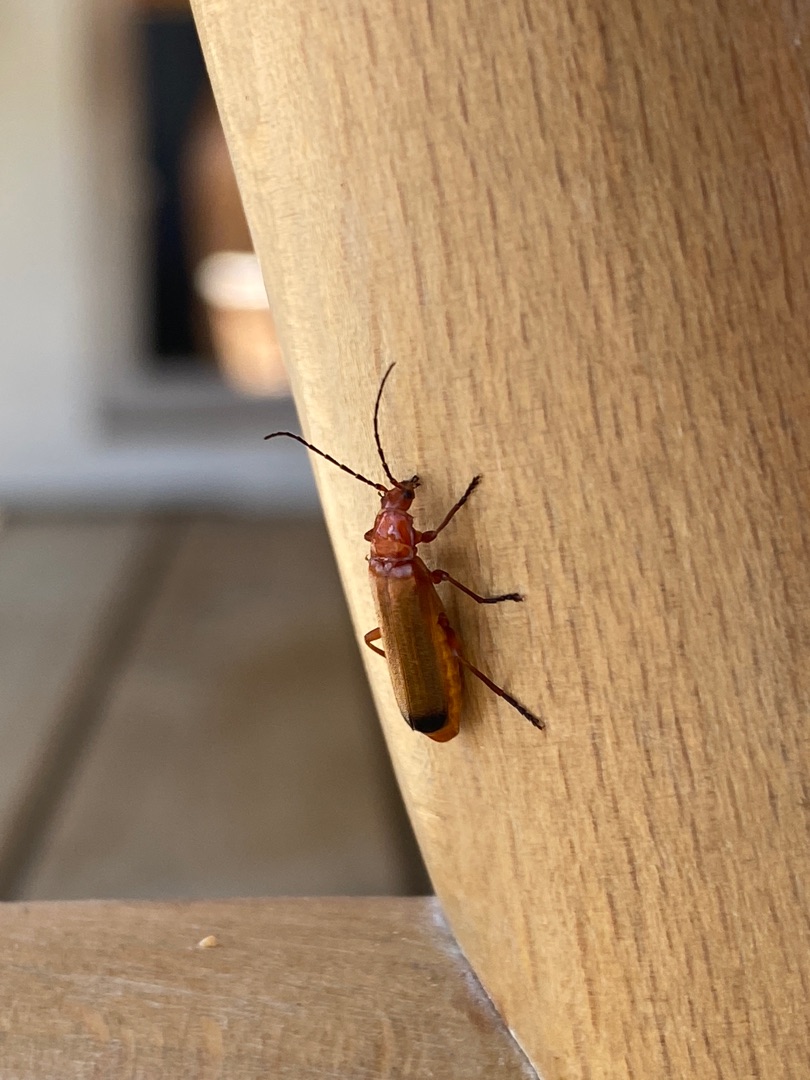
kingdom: Animalia
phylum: Arthropoda
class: Insecta
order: Coleoptera
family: Cantharidae
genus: Rhagonycha
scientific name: Rhagonycha fulva
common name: Præstebille
